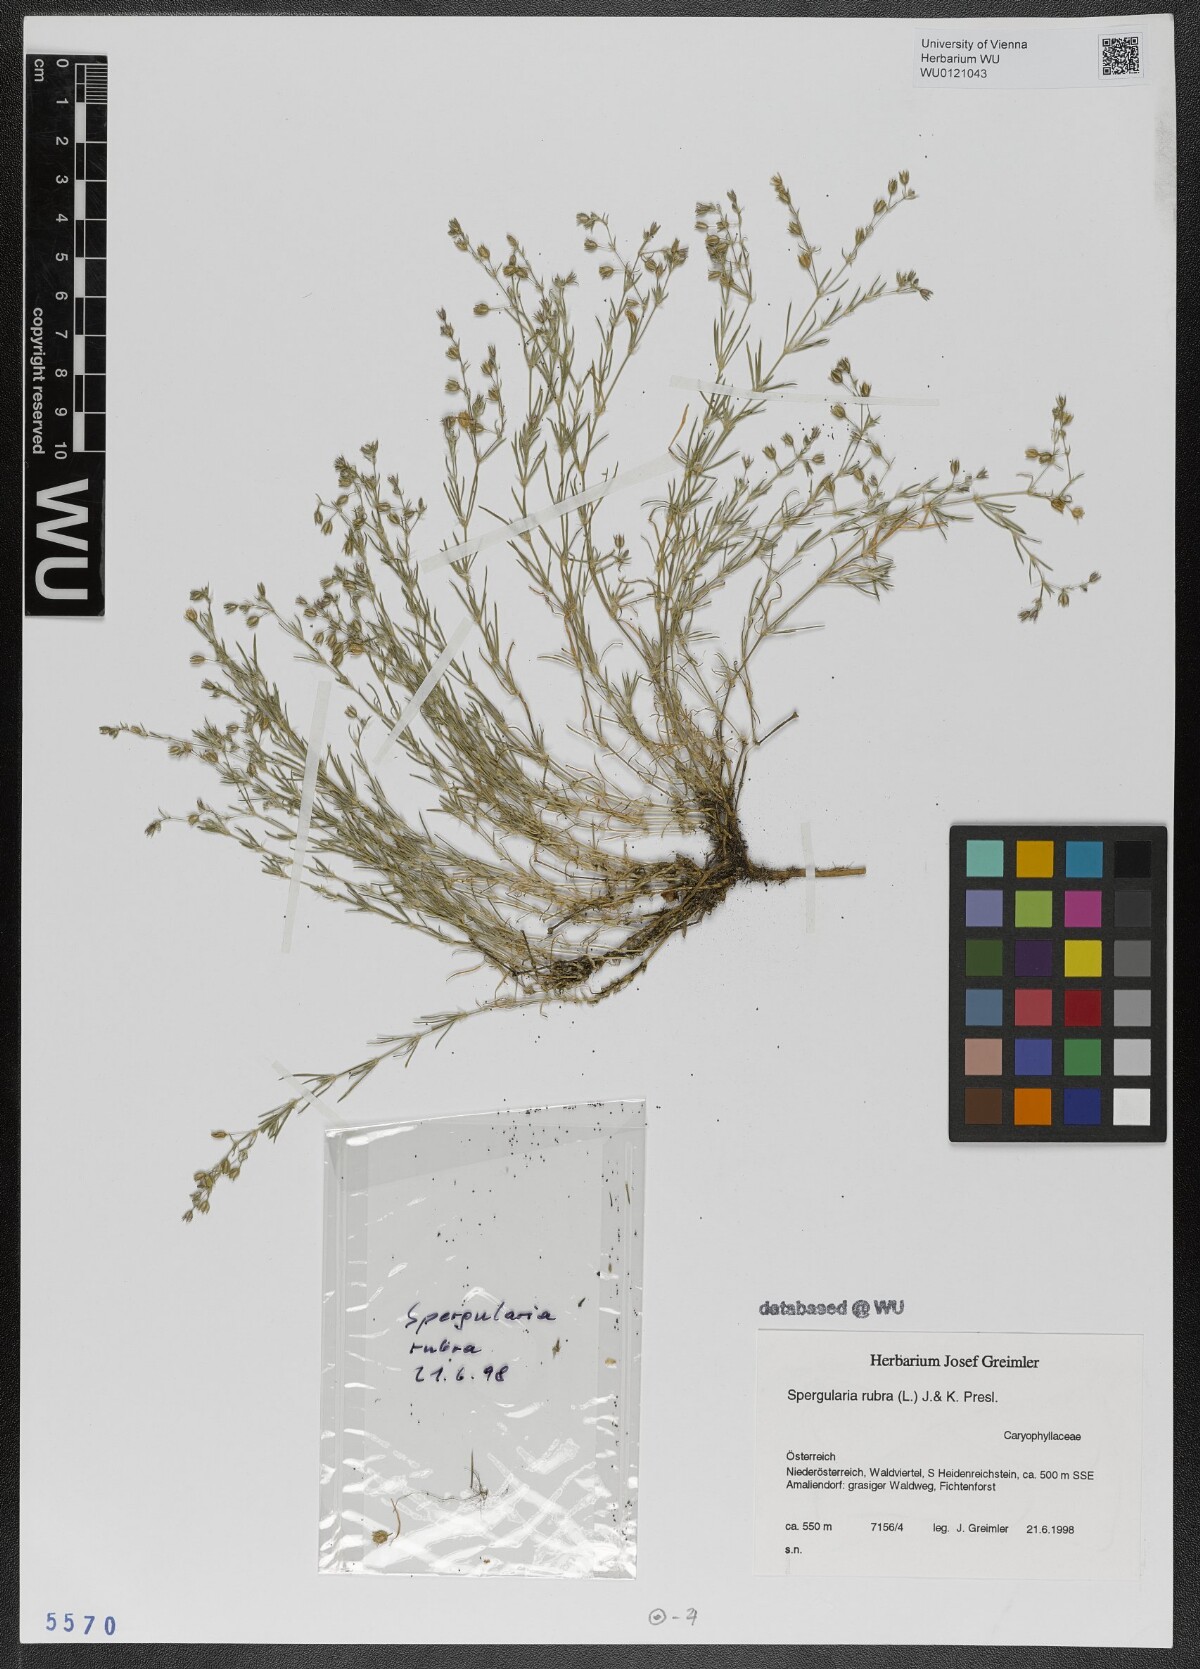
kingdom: Plantae
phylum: Tracheophyta
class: Magnoliopsida
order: Caryophyllales
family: Caryophyllaceae
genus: Spergularia
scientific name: Spergularia rubra
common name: Red sand-spurrey
